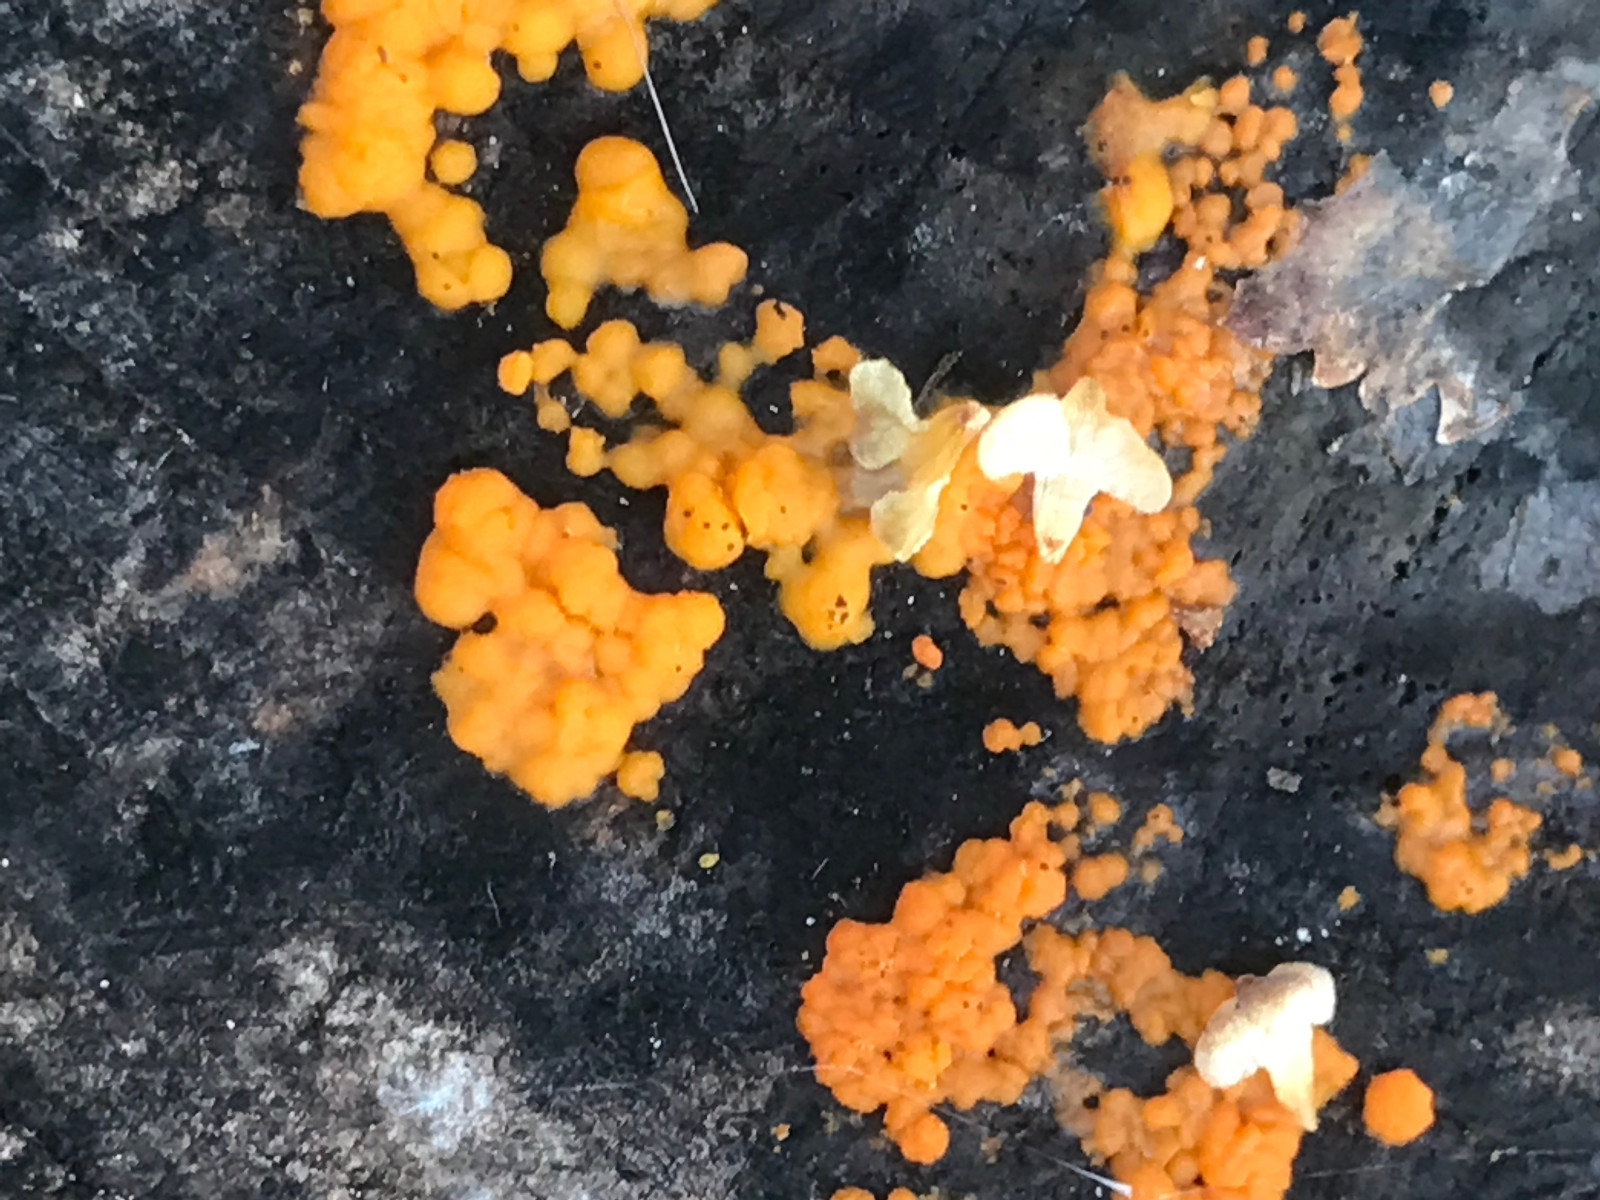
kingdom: Fungi
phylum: Basidiomycota
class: Dacrymycetes
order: Dacrymycetales
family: Dacrymycetaceae
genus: Dacrymyces
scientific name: Dacrymyces stillatus
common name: almindelig tåresvamp
